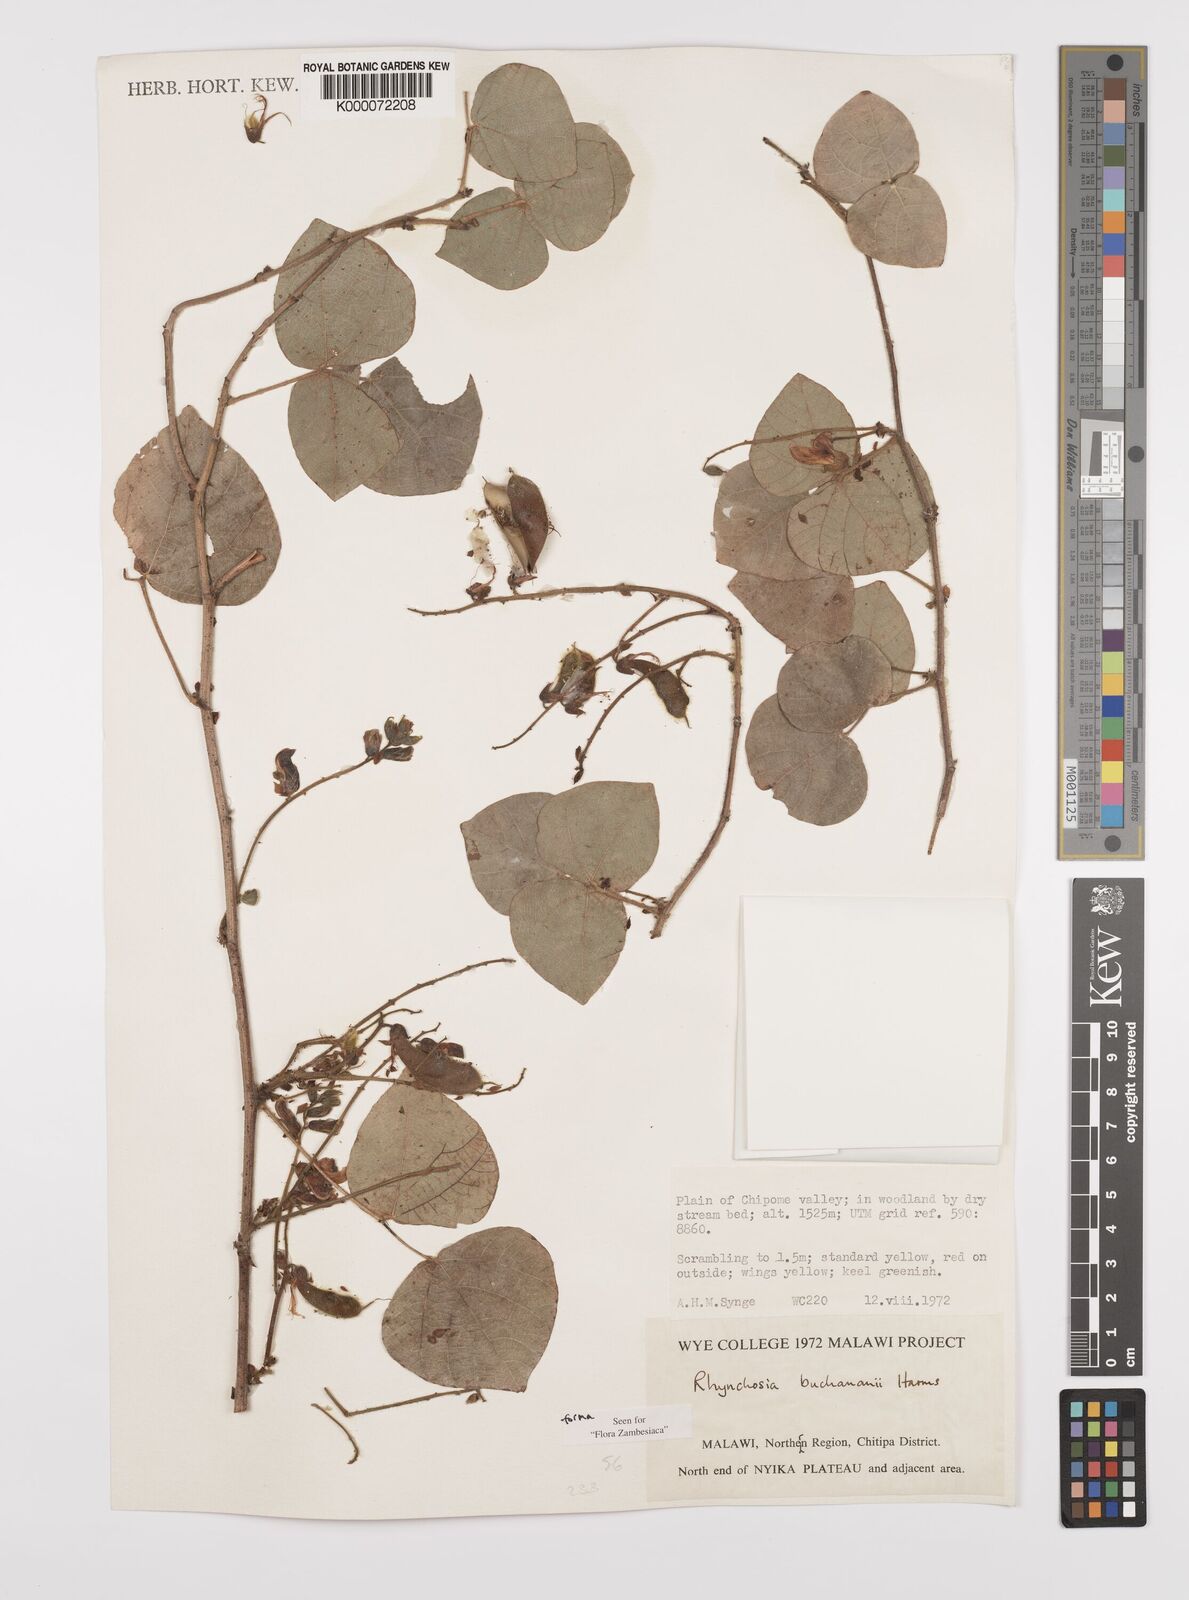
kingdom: Plantae
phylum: Tracheophyta
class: Magnoliopsida
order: Fabales
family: Fabaceae
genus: Rhynchosia
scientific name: Rhynchosia buchananii
